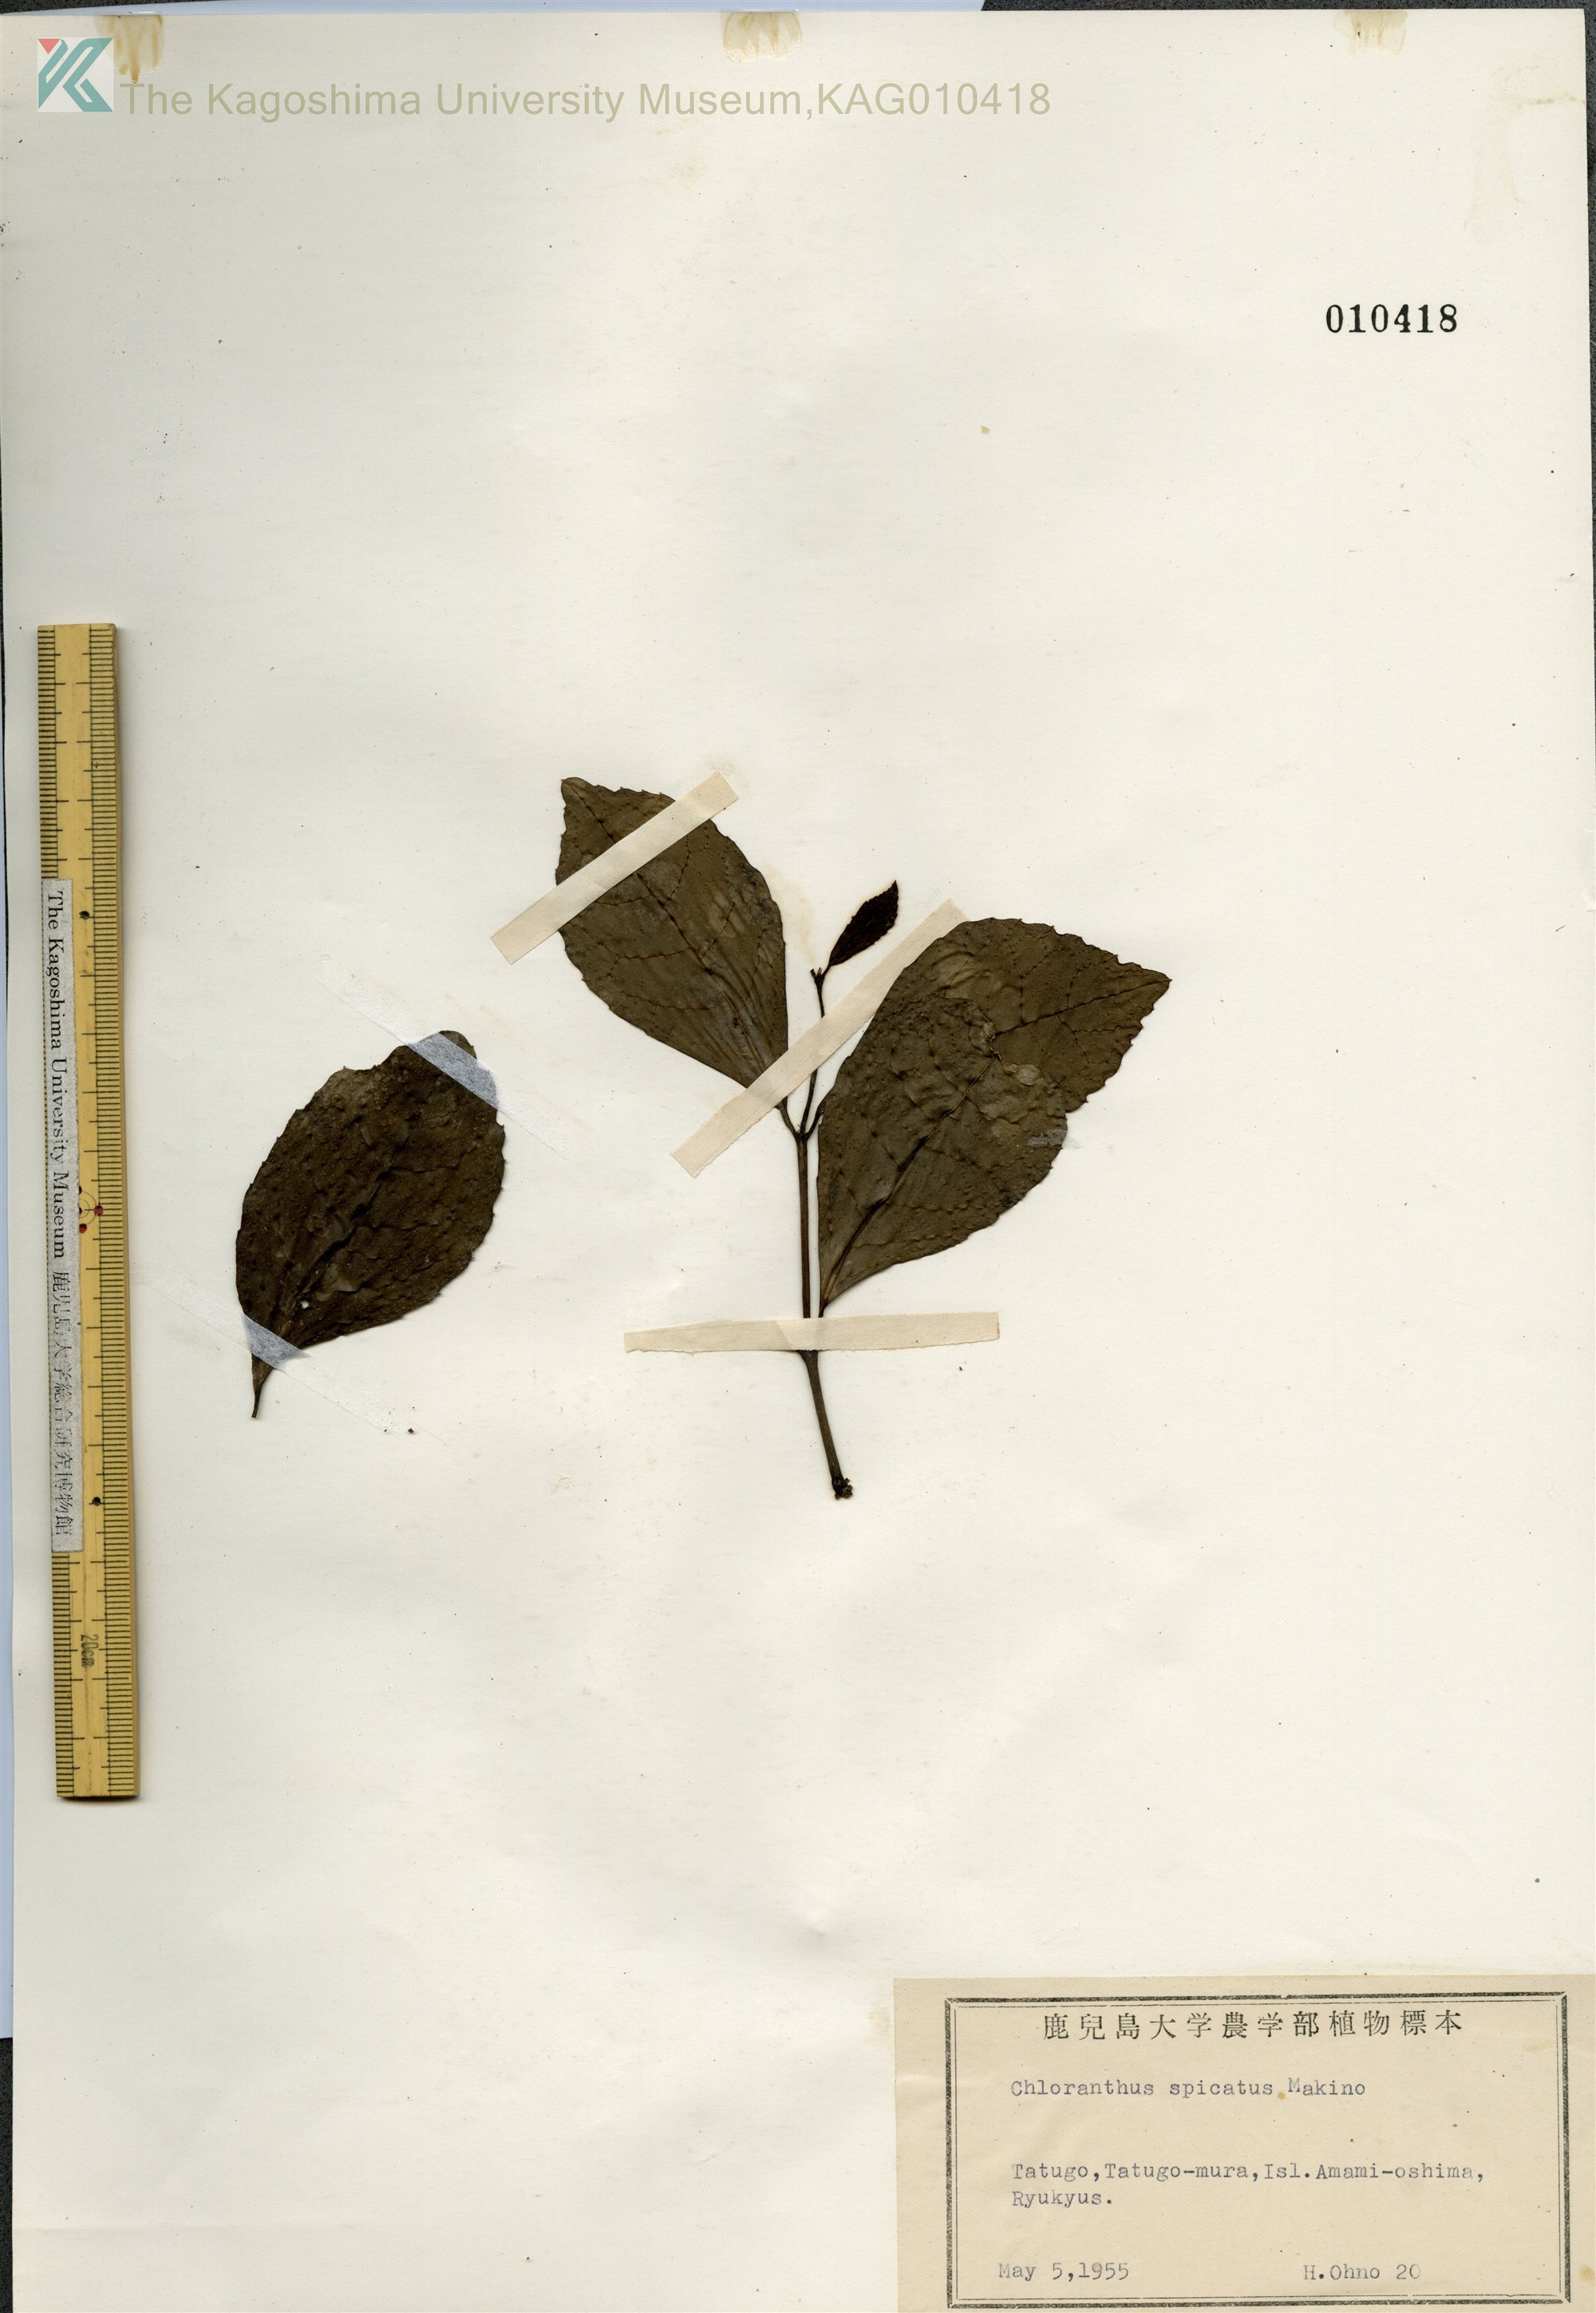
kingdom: Plantae
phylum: Tracheophyta
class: Magnoliopsida
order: Chloranthales
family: Chloranthaceae
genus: Chloranthus
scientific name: Chloranthus spicatus
